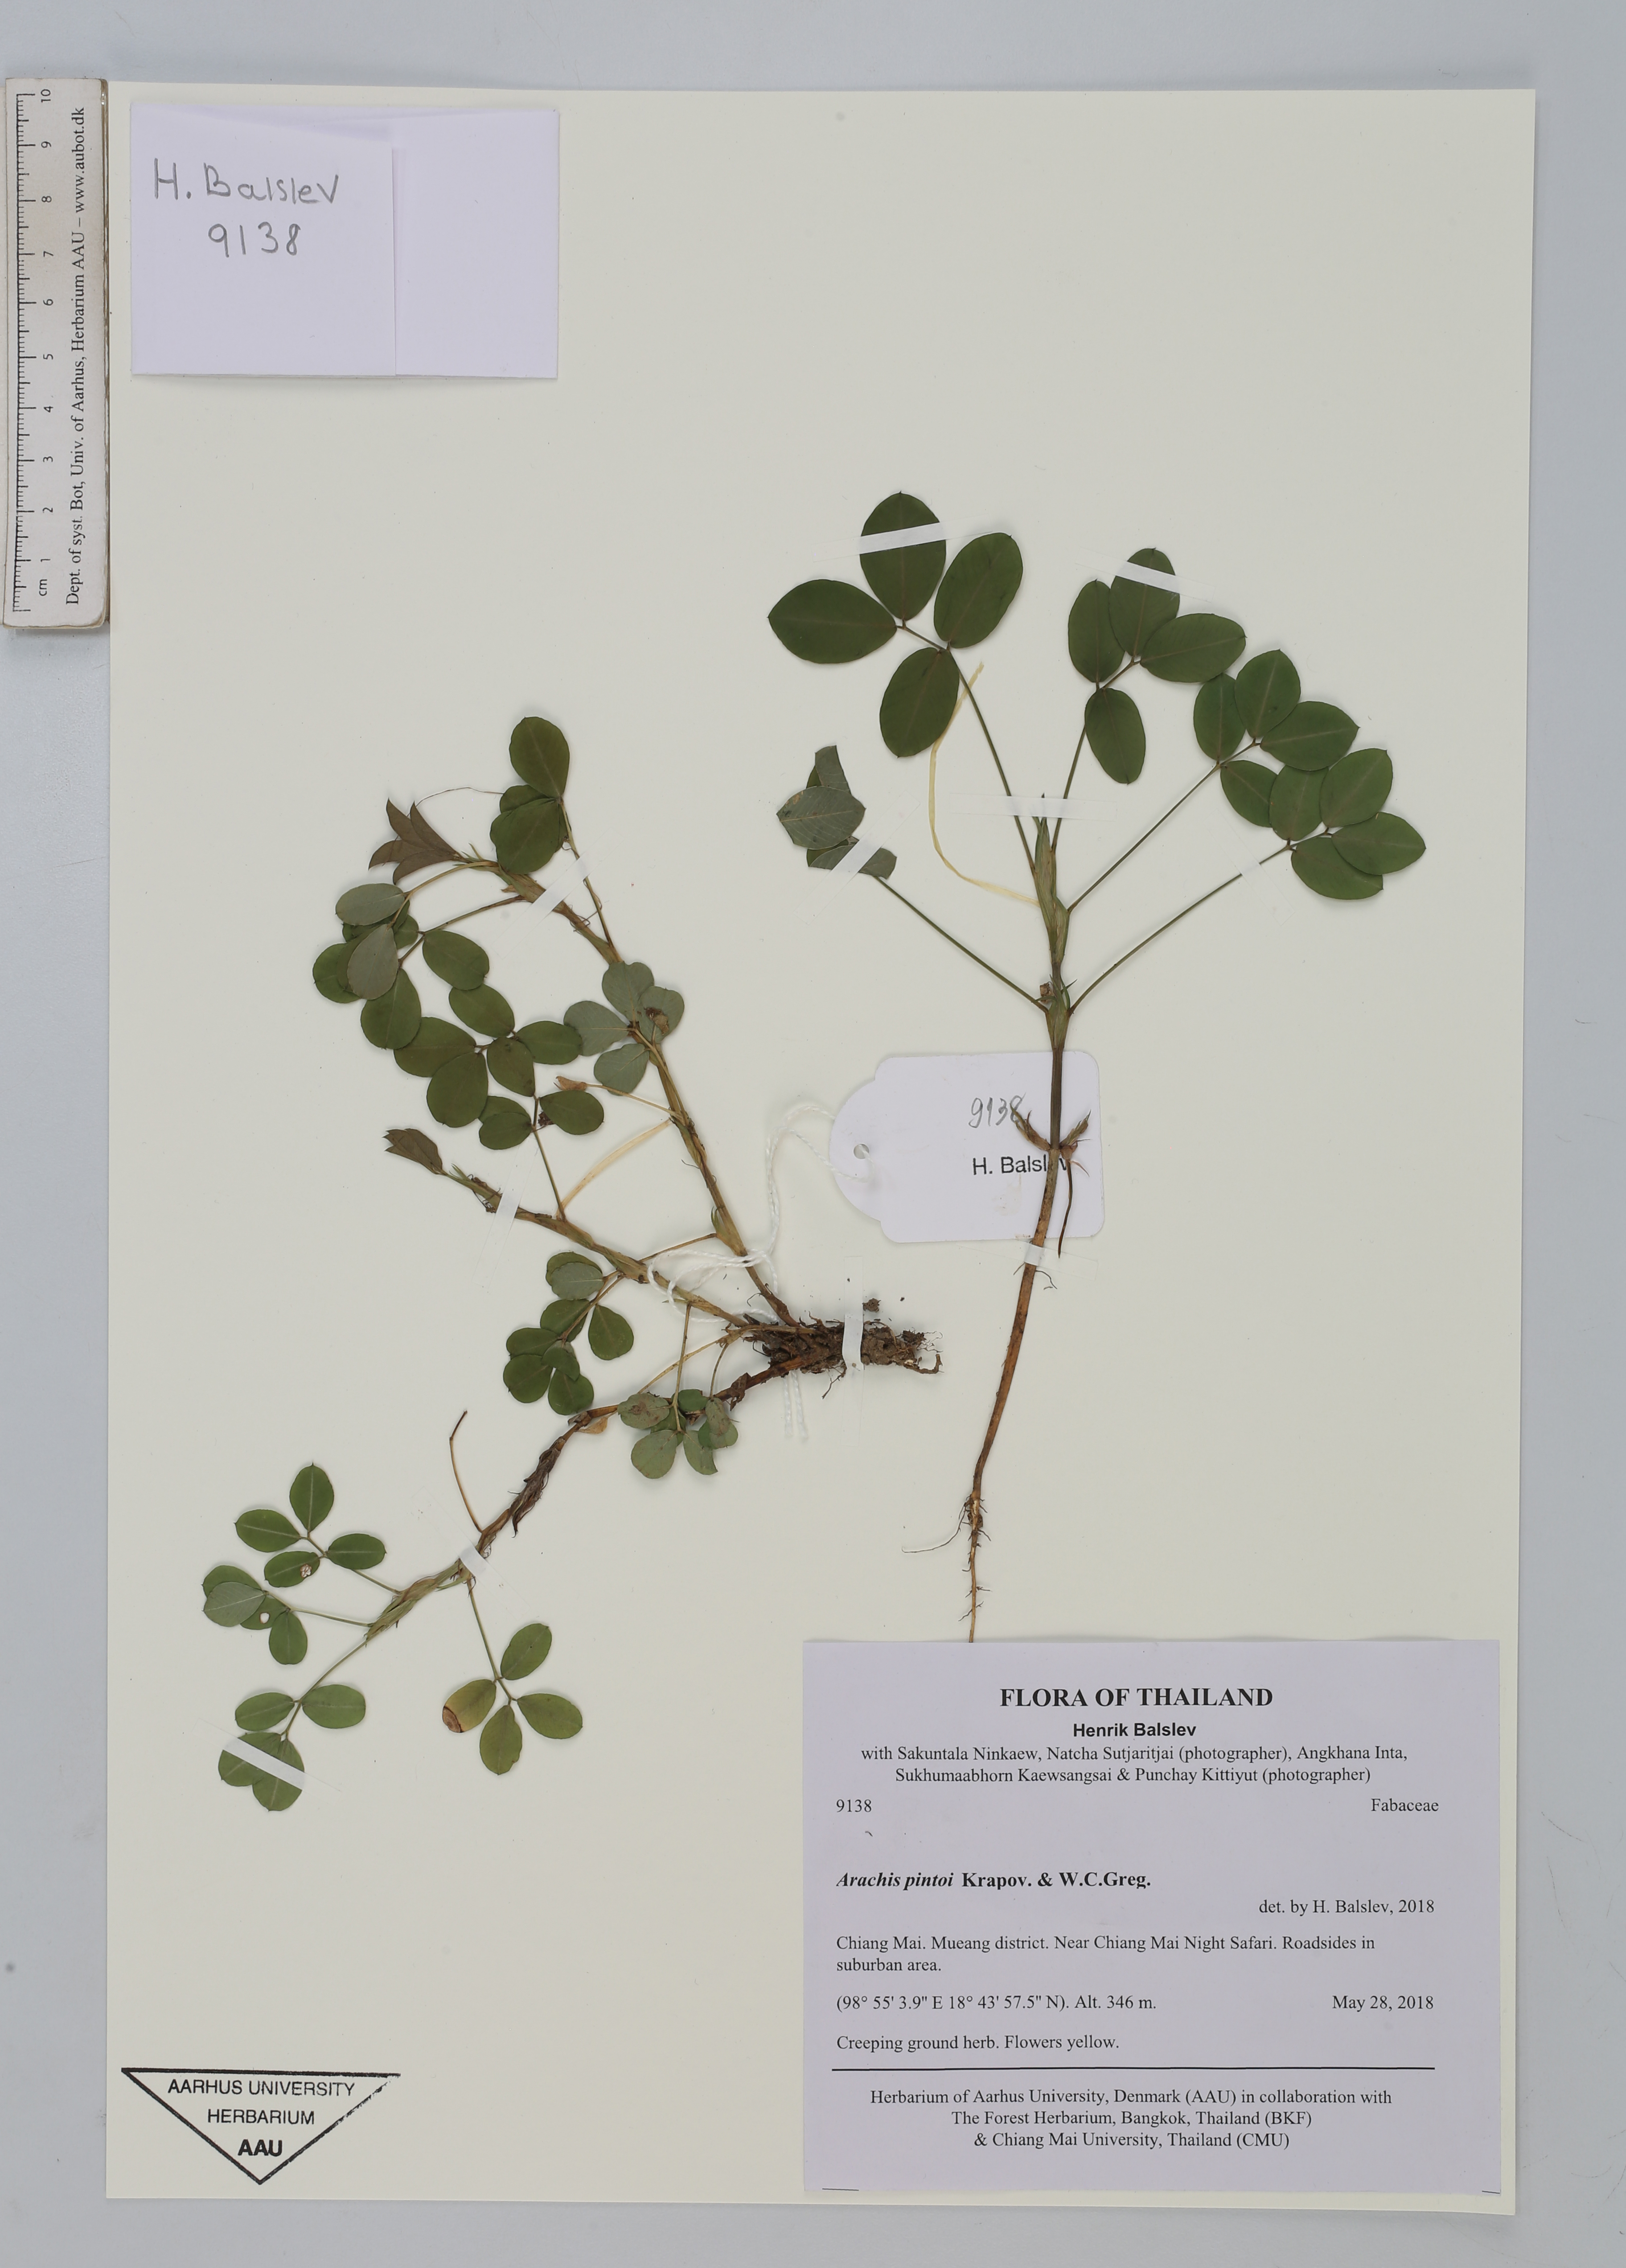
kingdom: Plantae
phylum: Tracheophyta
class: Magnoliopsida
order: Fabales
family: Fabaceae
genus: Arachis
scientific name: Arachis pintoi
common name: Pinto peanut
